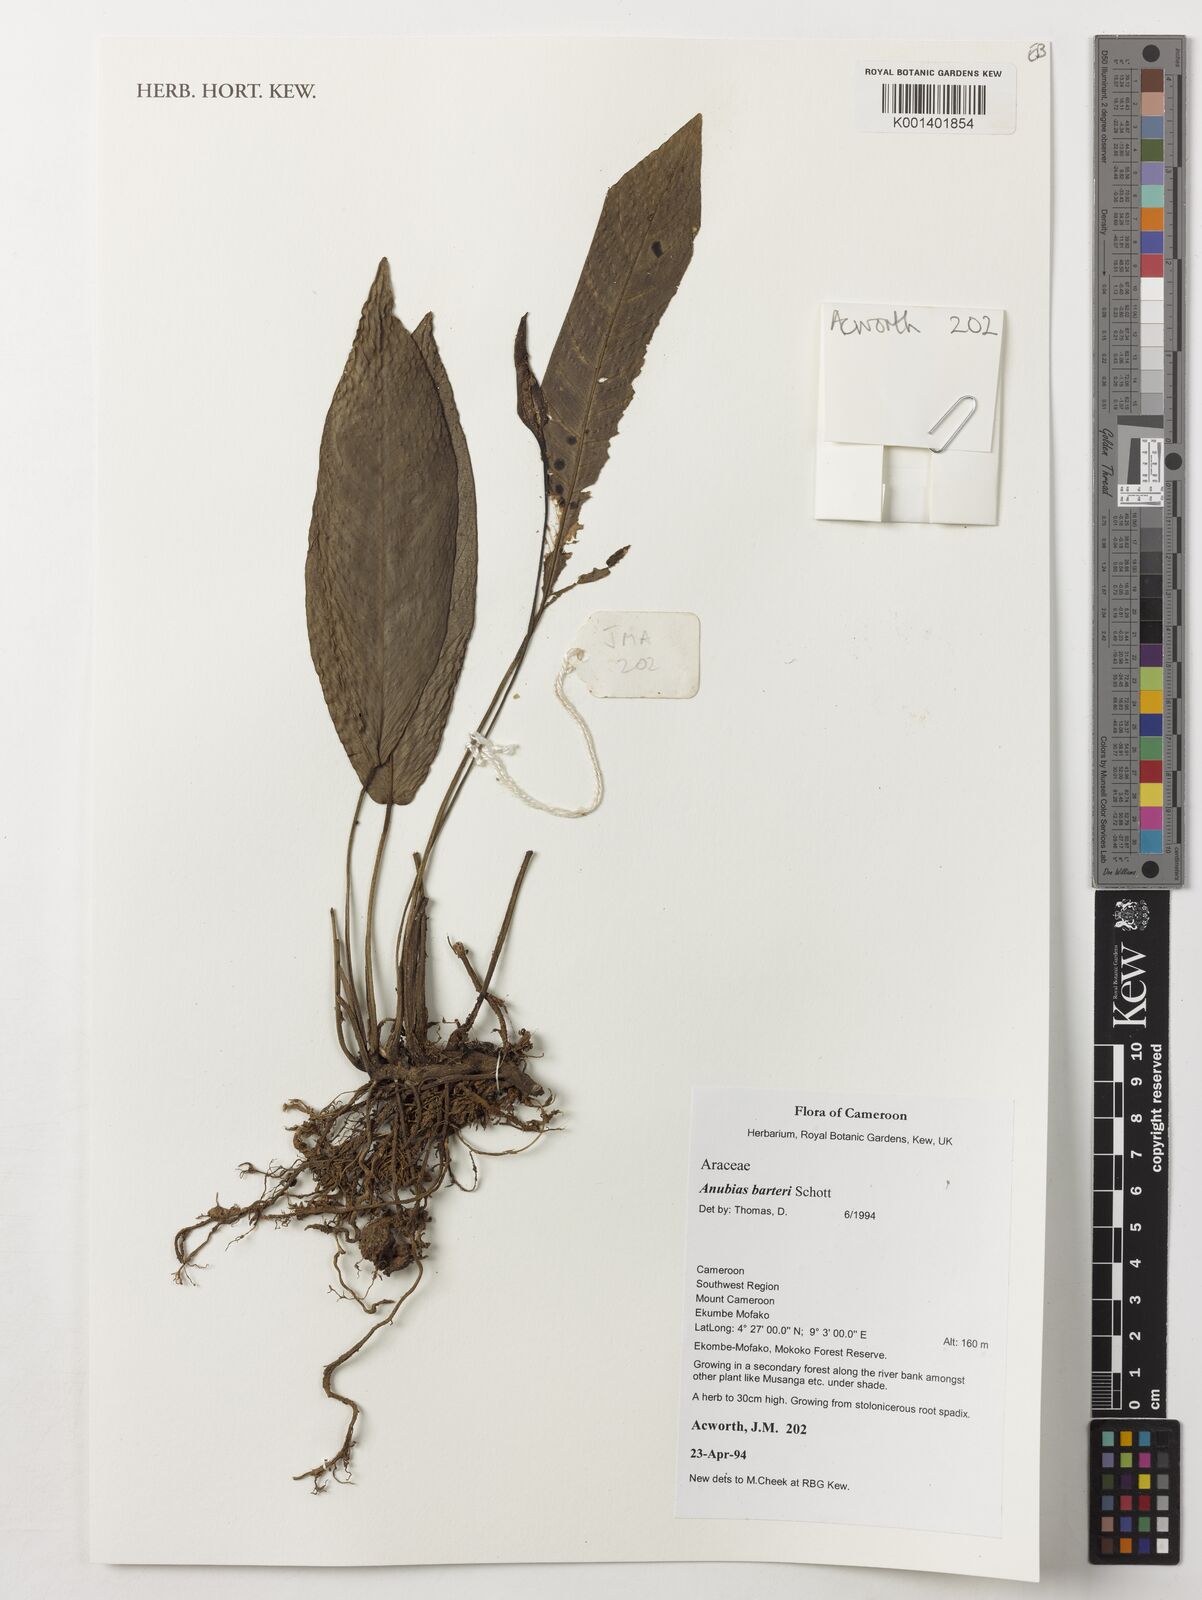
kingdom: Plantae
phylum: Tracheophyta
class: Liliopsida
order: Alismatales
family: Araceae
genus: Anubias
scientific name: Anubias barteri
